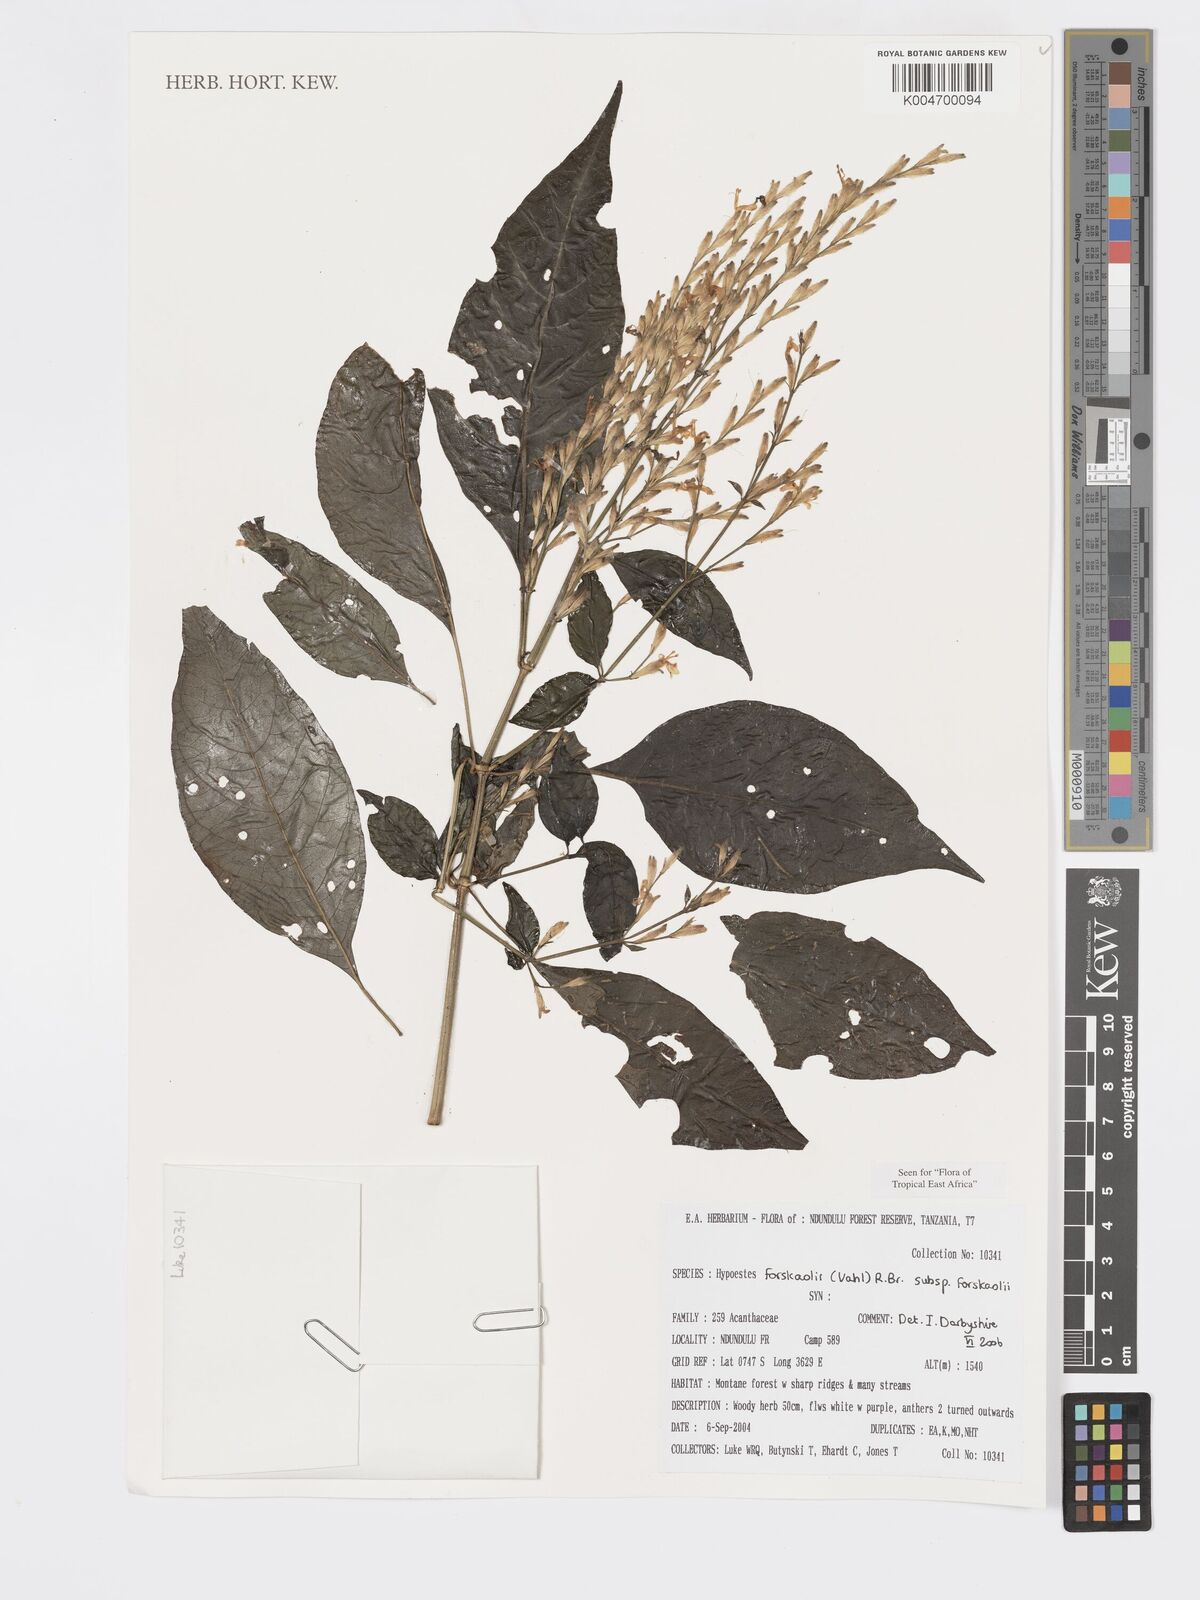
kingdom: Plantae
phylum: Tracheophyta
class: Magnoliopsida
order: Lamiales
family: Acanthaceae
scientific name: Acanthaceae
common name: Acanthaceae
